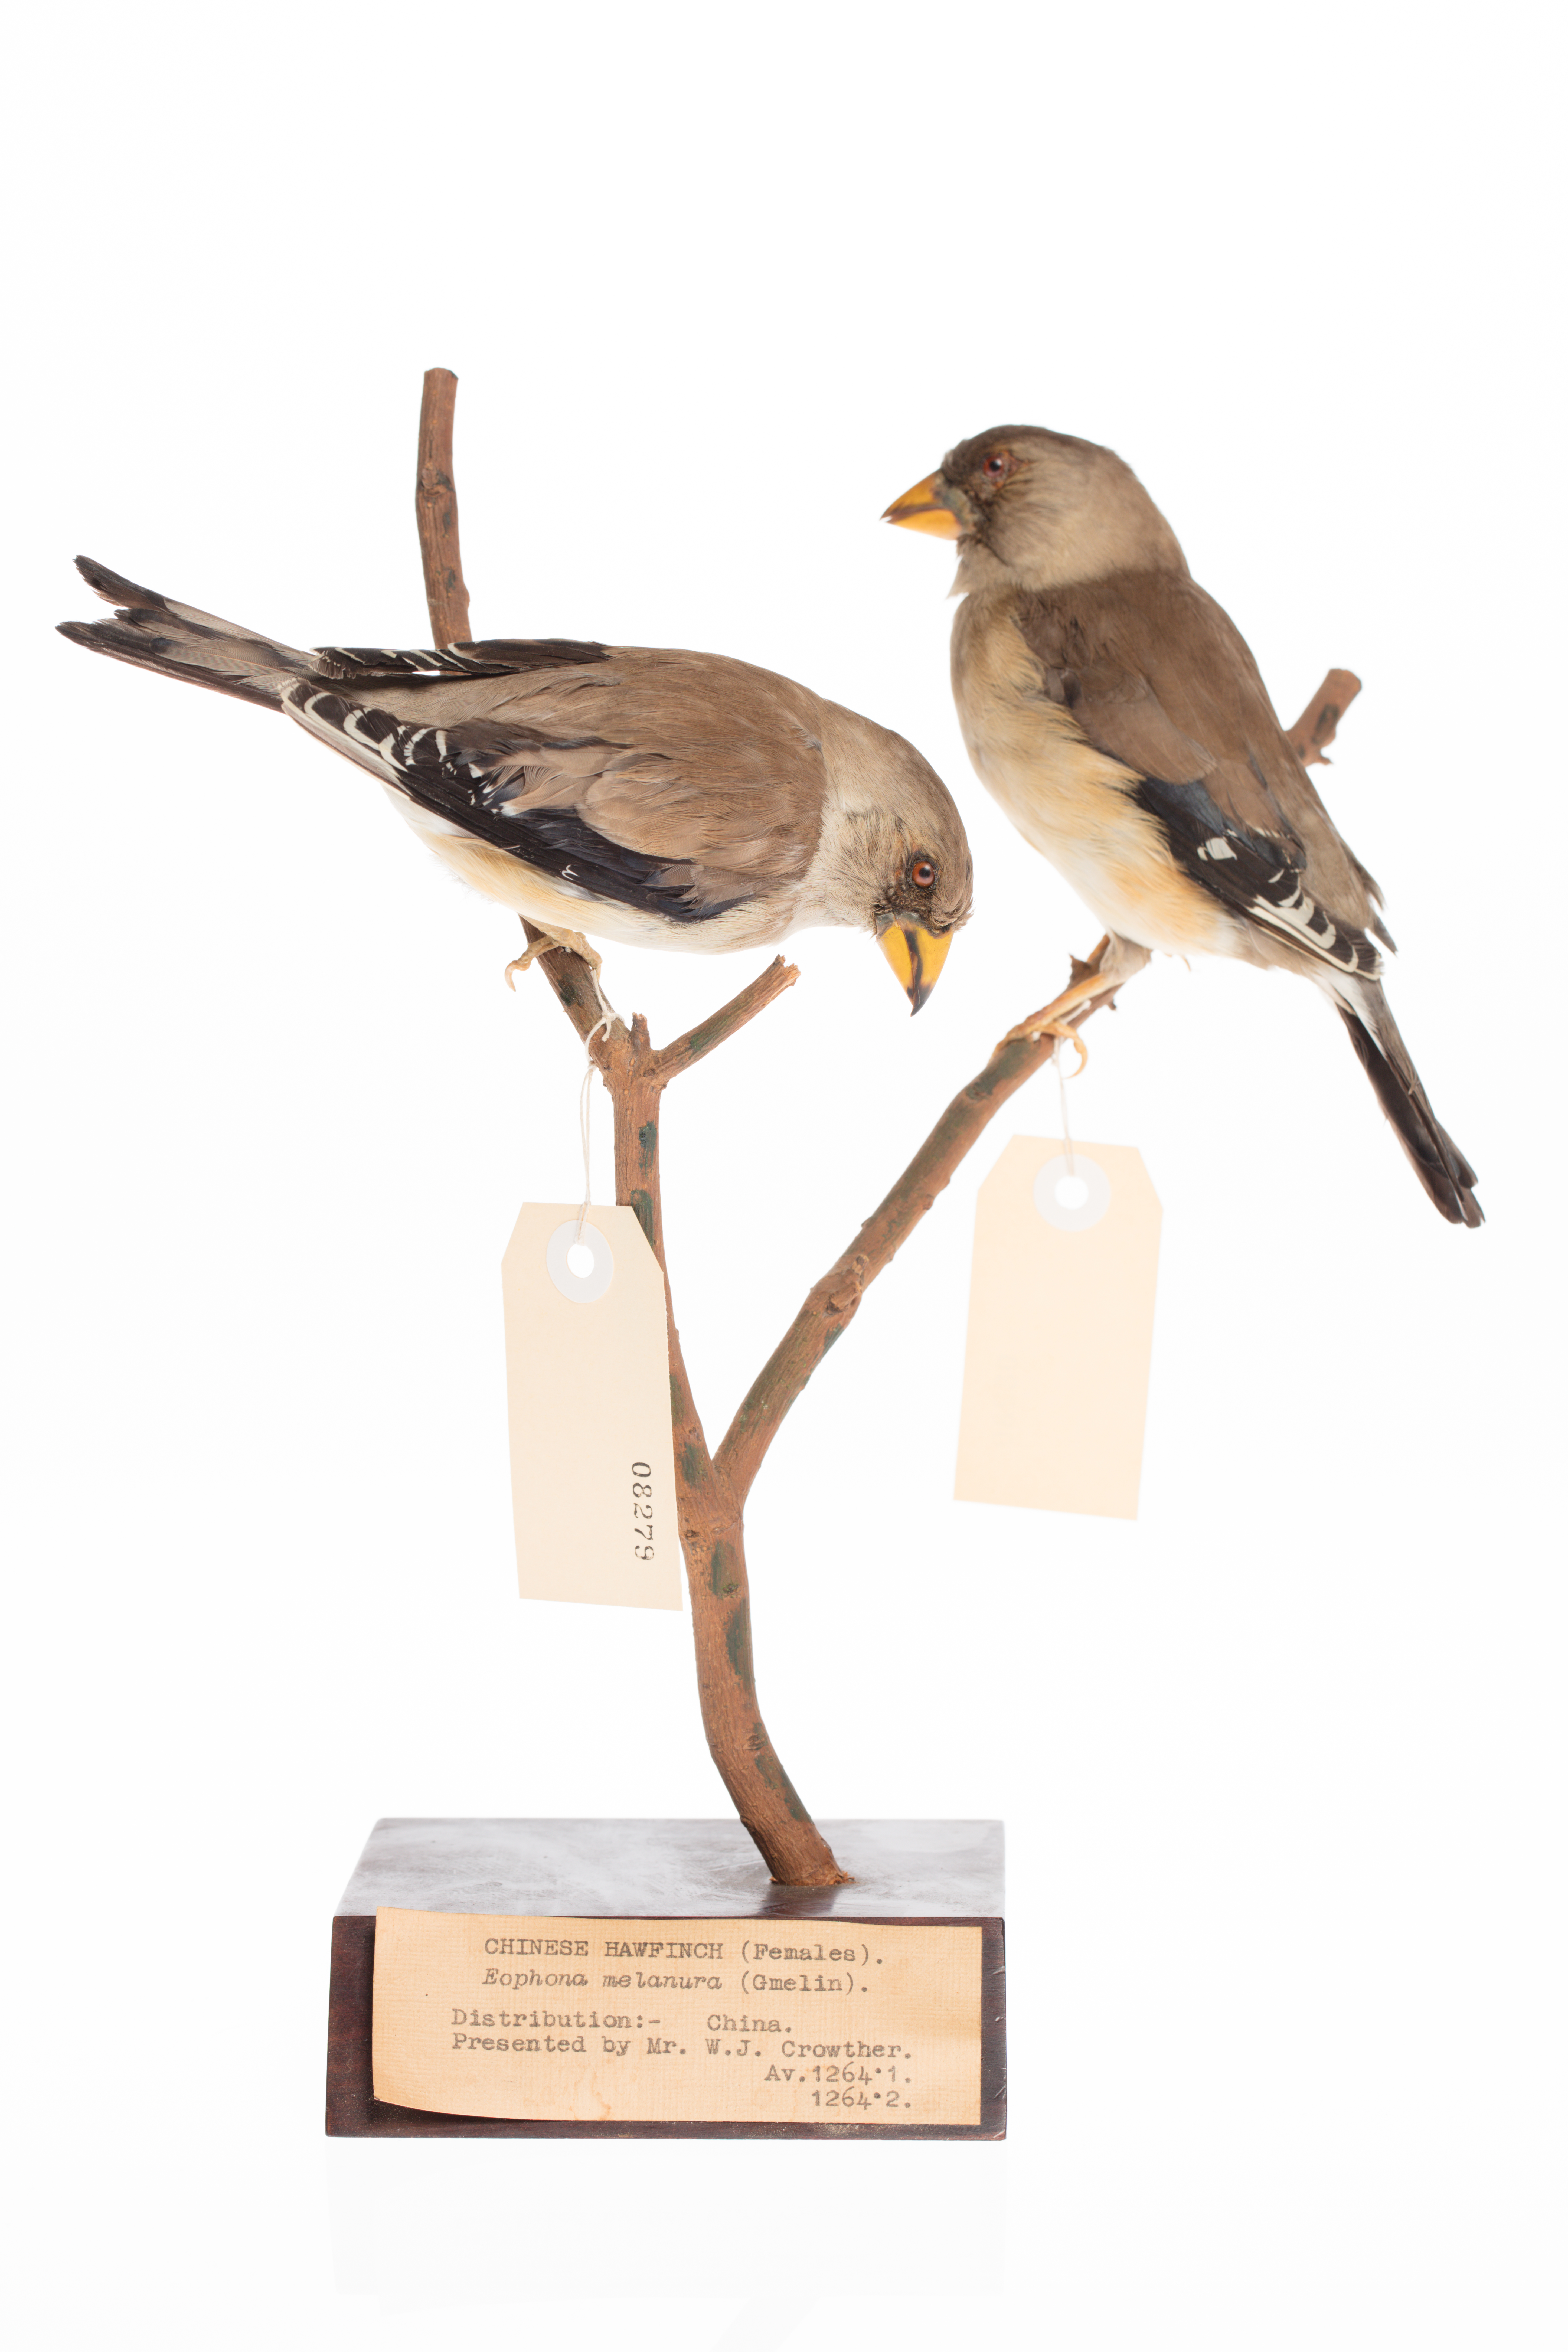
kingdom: Animalia
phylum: Chordata
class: Aves
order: Passeriformes
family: Fringillidae
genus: Euphonia
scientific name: Euphonia laniirostris
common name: Thick-billed euphonia
